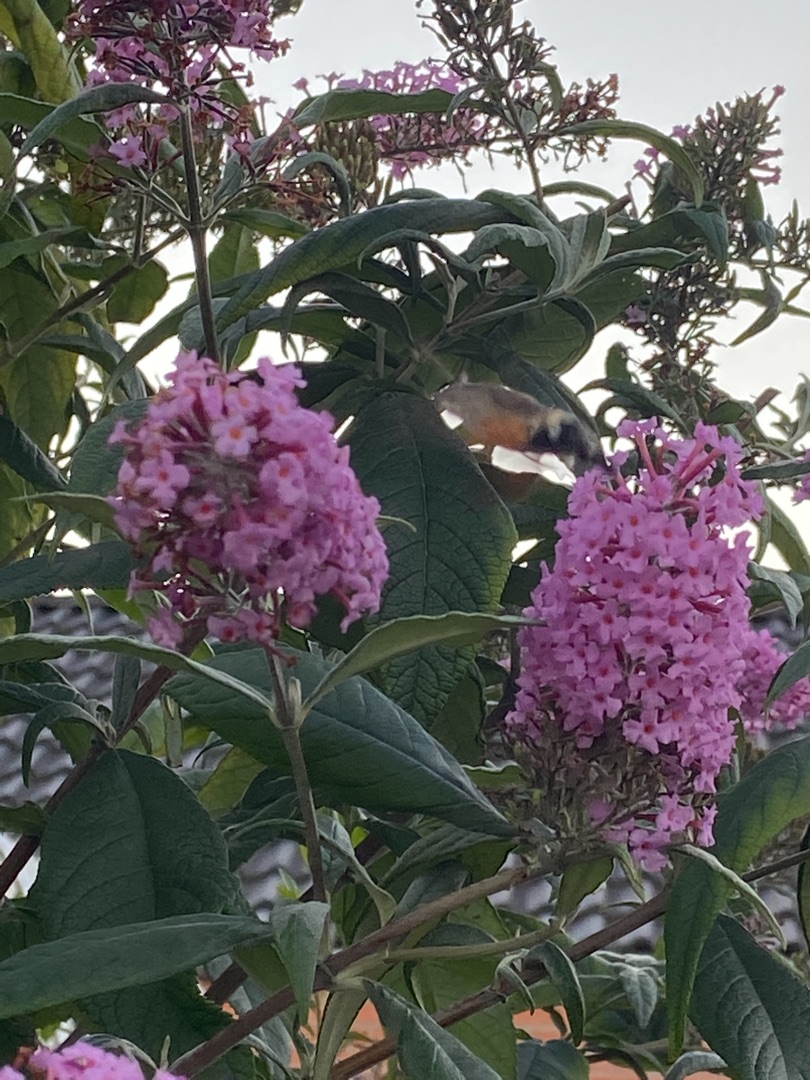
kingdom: Animalia
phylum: Arthropoda
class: Insecta
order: Lepidoptera
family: Sphingidae
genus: Macroglossum
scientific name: Macroglossum stellatarum
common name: Duehale
